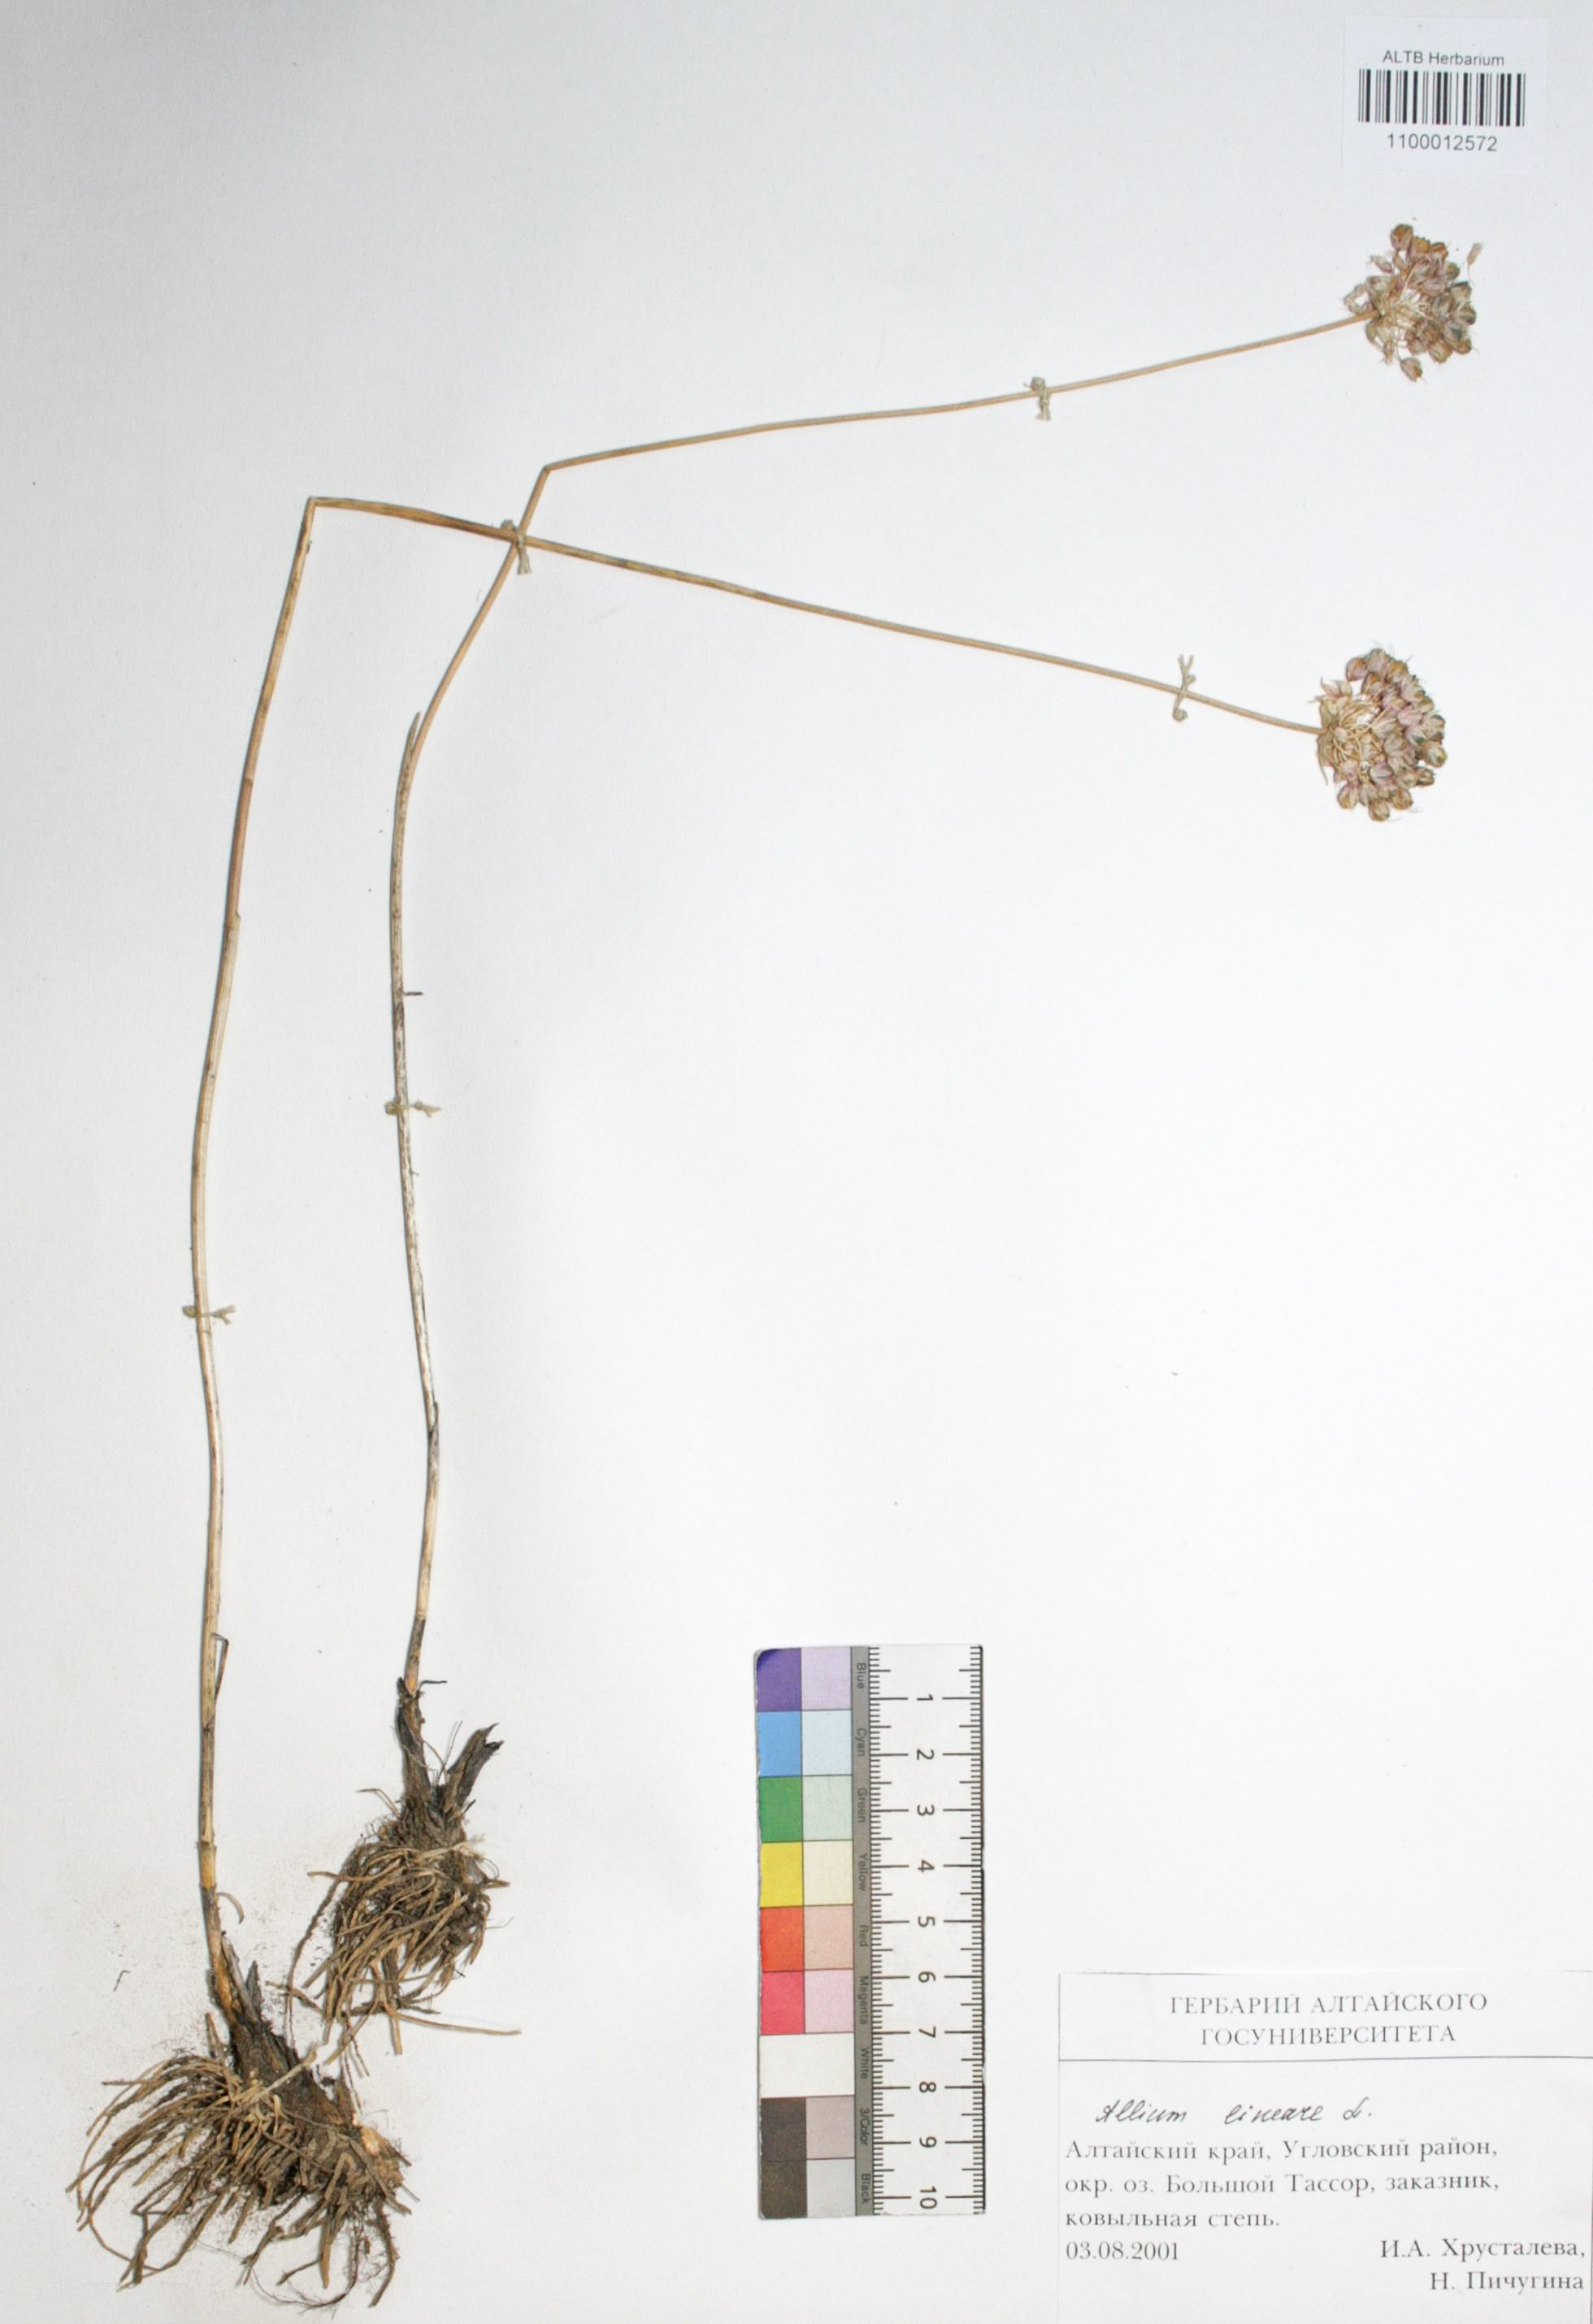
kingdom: Plantae
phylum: Tracheophyta
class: Liliopsida
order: Asparagales
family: Amaryllidaceae
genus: Allium
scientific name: Allium lineare
